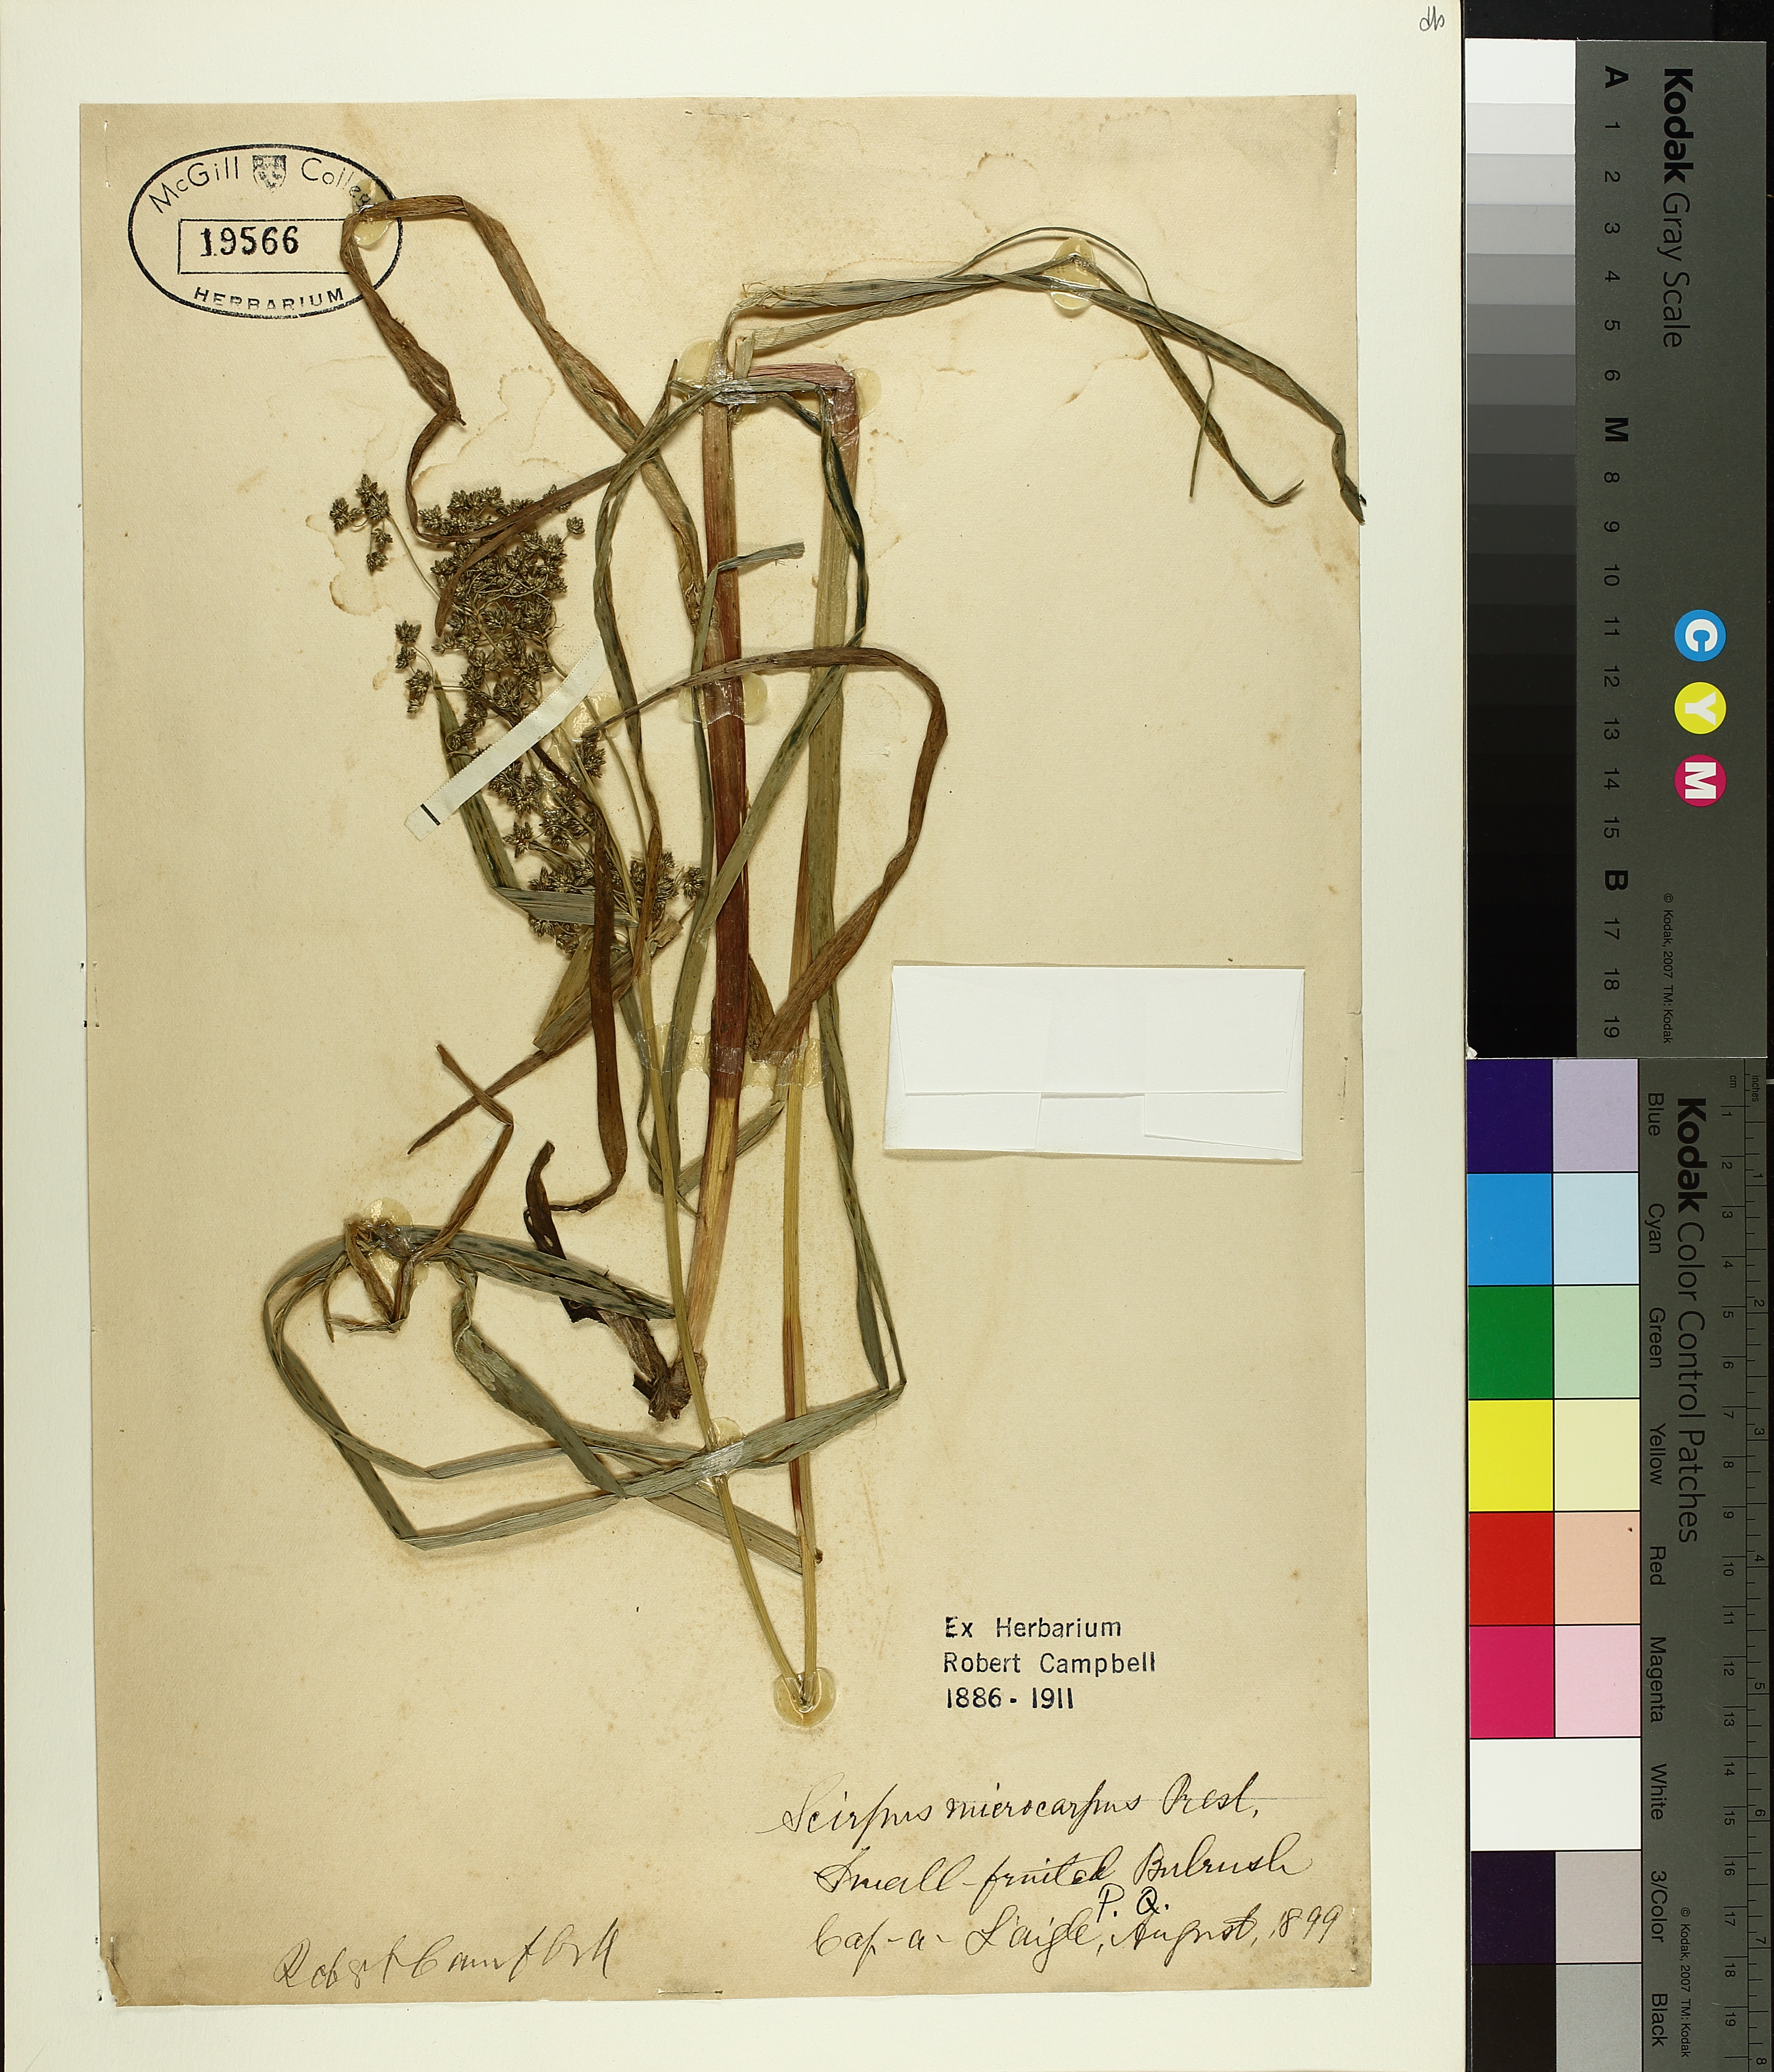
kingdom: Plantae
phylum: Tracheophyta
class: Liliopsida
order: Poales
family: Cyperaceae
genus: Scirpus
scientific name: Scirpus microcarpus
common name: Panicled bulrush
